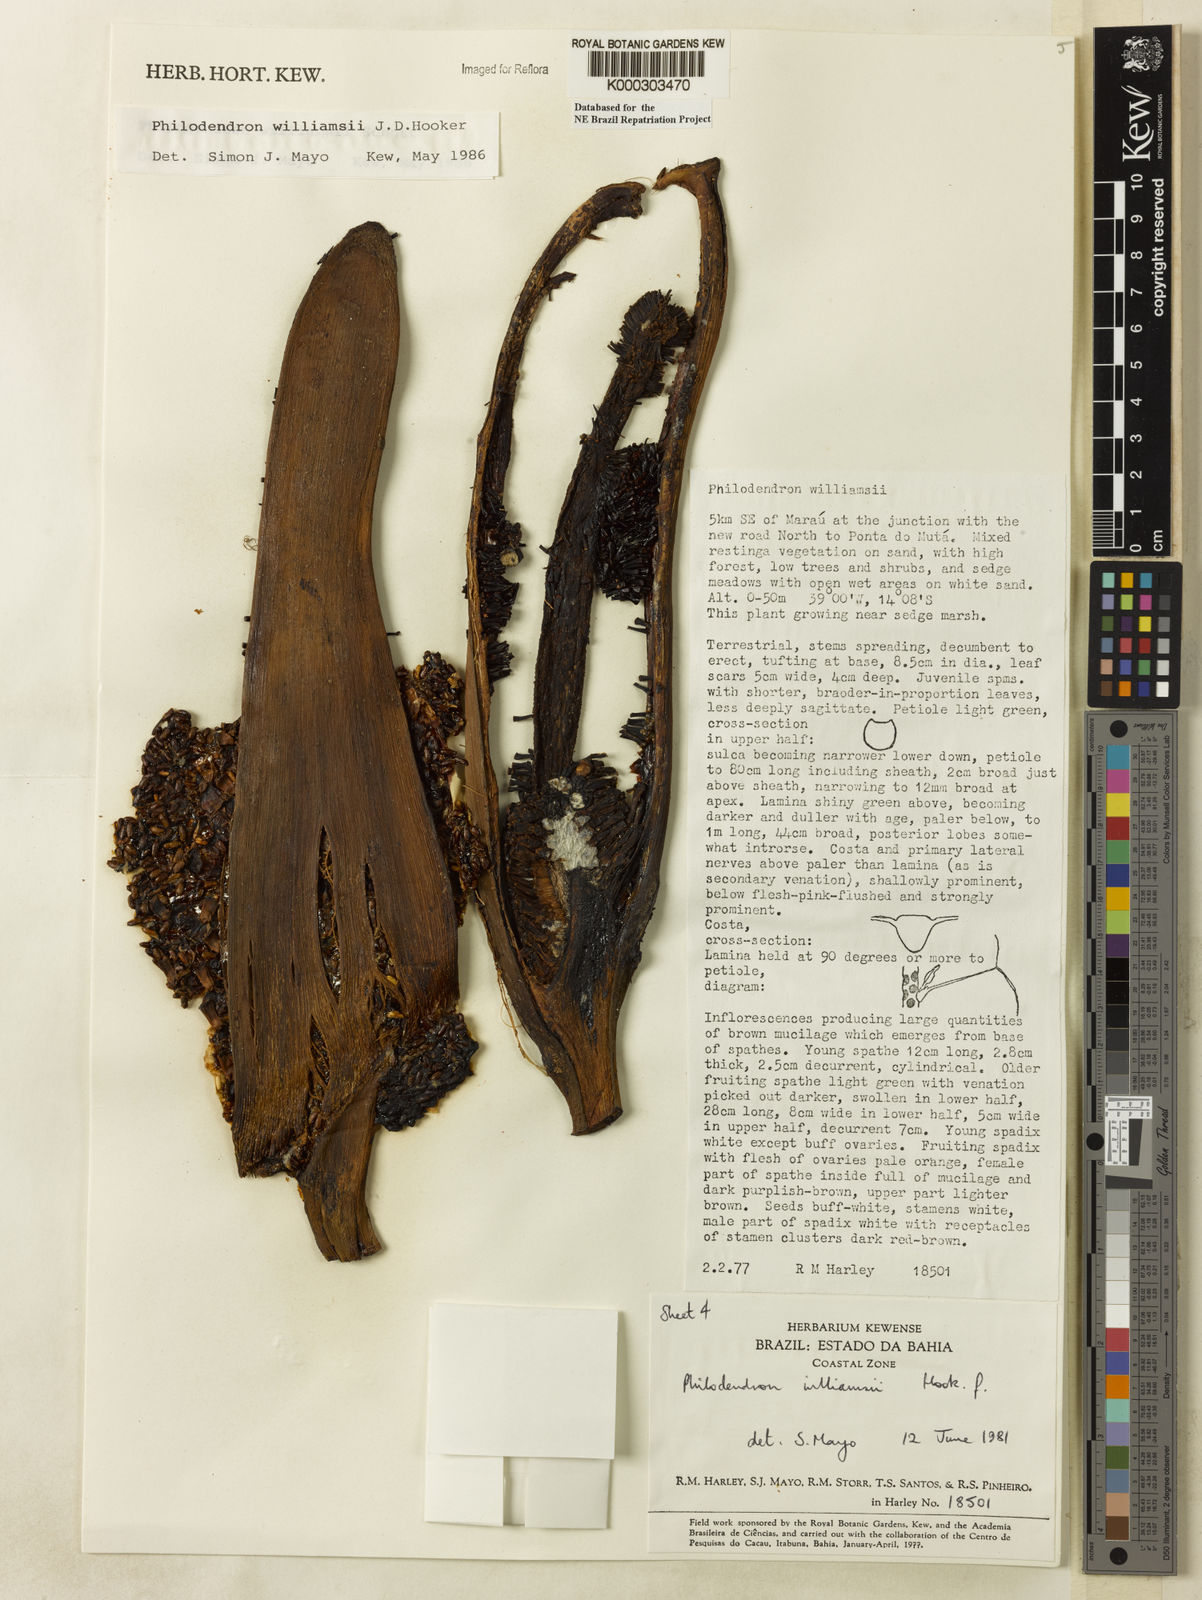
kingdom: Plantae
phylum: Tracheophyta
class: Liliopsida
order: Alismatales
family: Araceae
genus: Thaumatophyllum
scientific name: Thaumatophyllum williamsii
